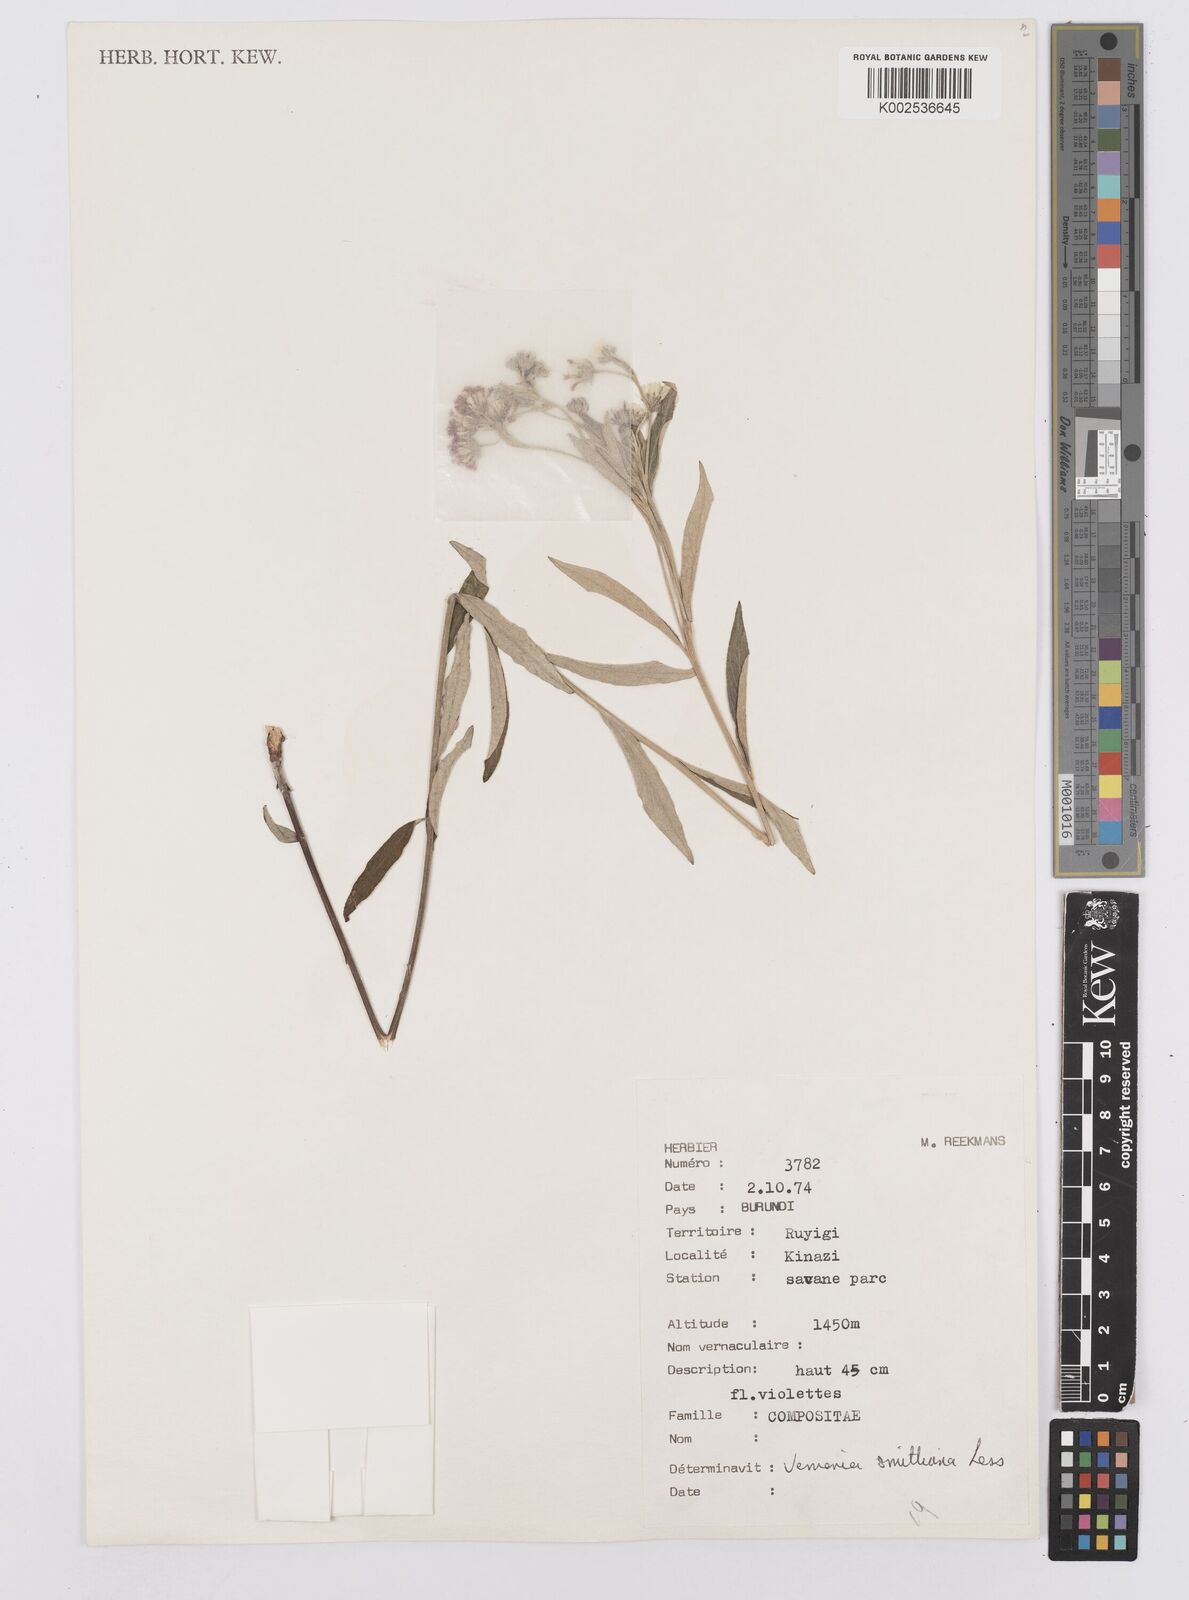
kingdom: Plantae
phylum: Tracheophyta
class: Magnoliopsida
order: Asterales
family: Asteraceae
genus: Hilliardiella
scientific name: Hilliardiella smithiana
